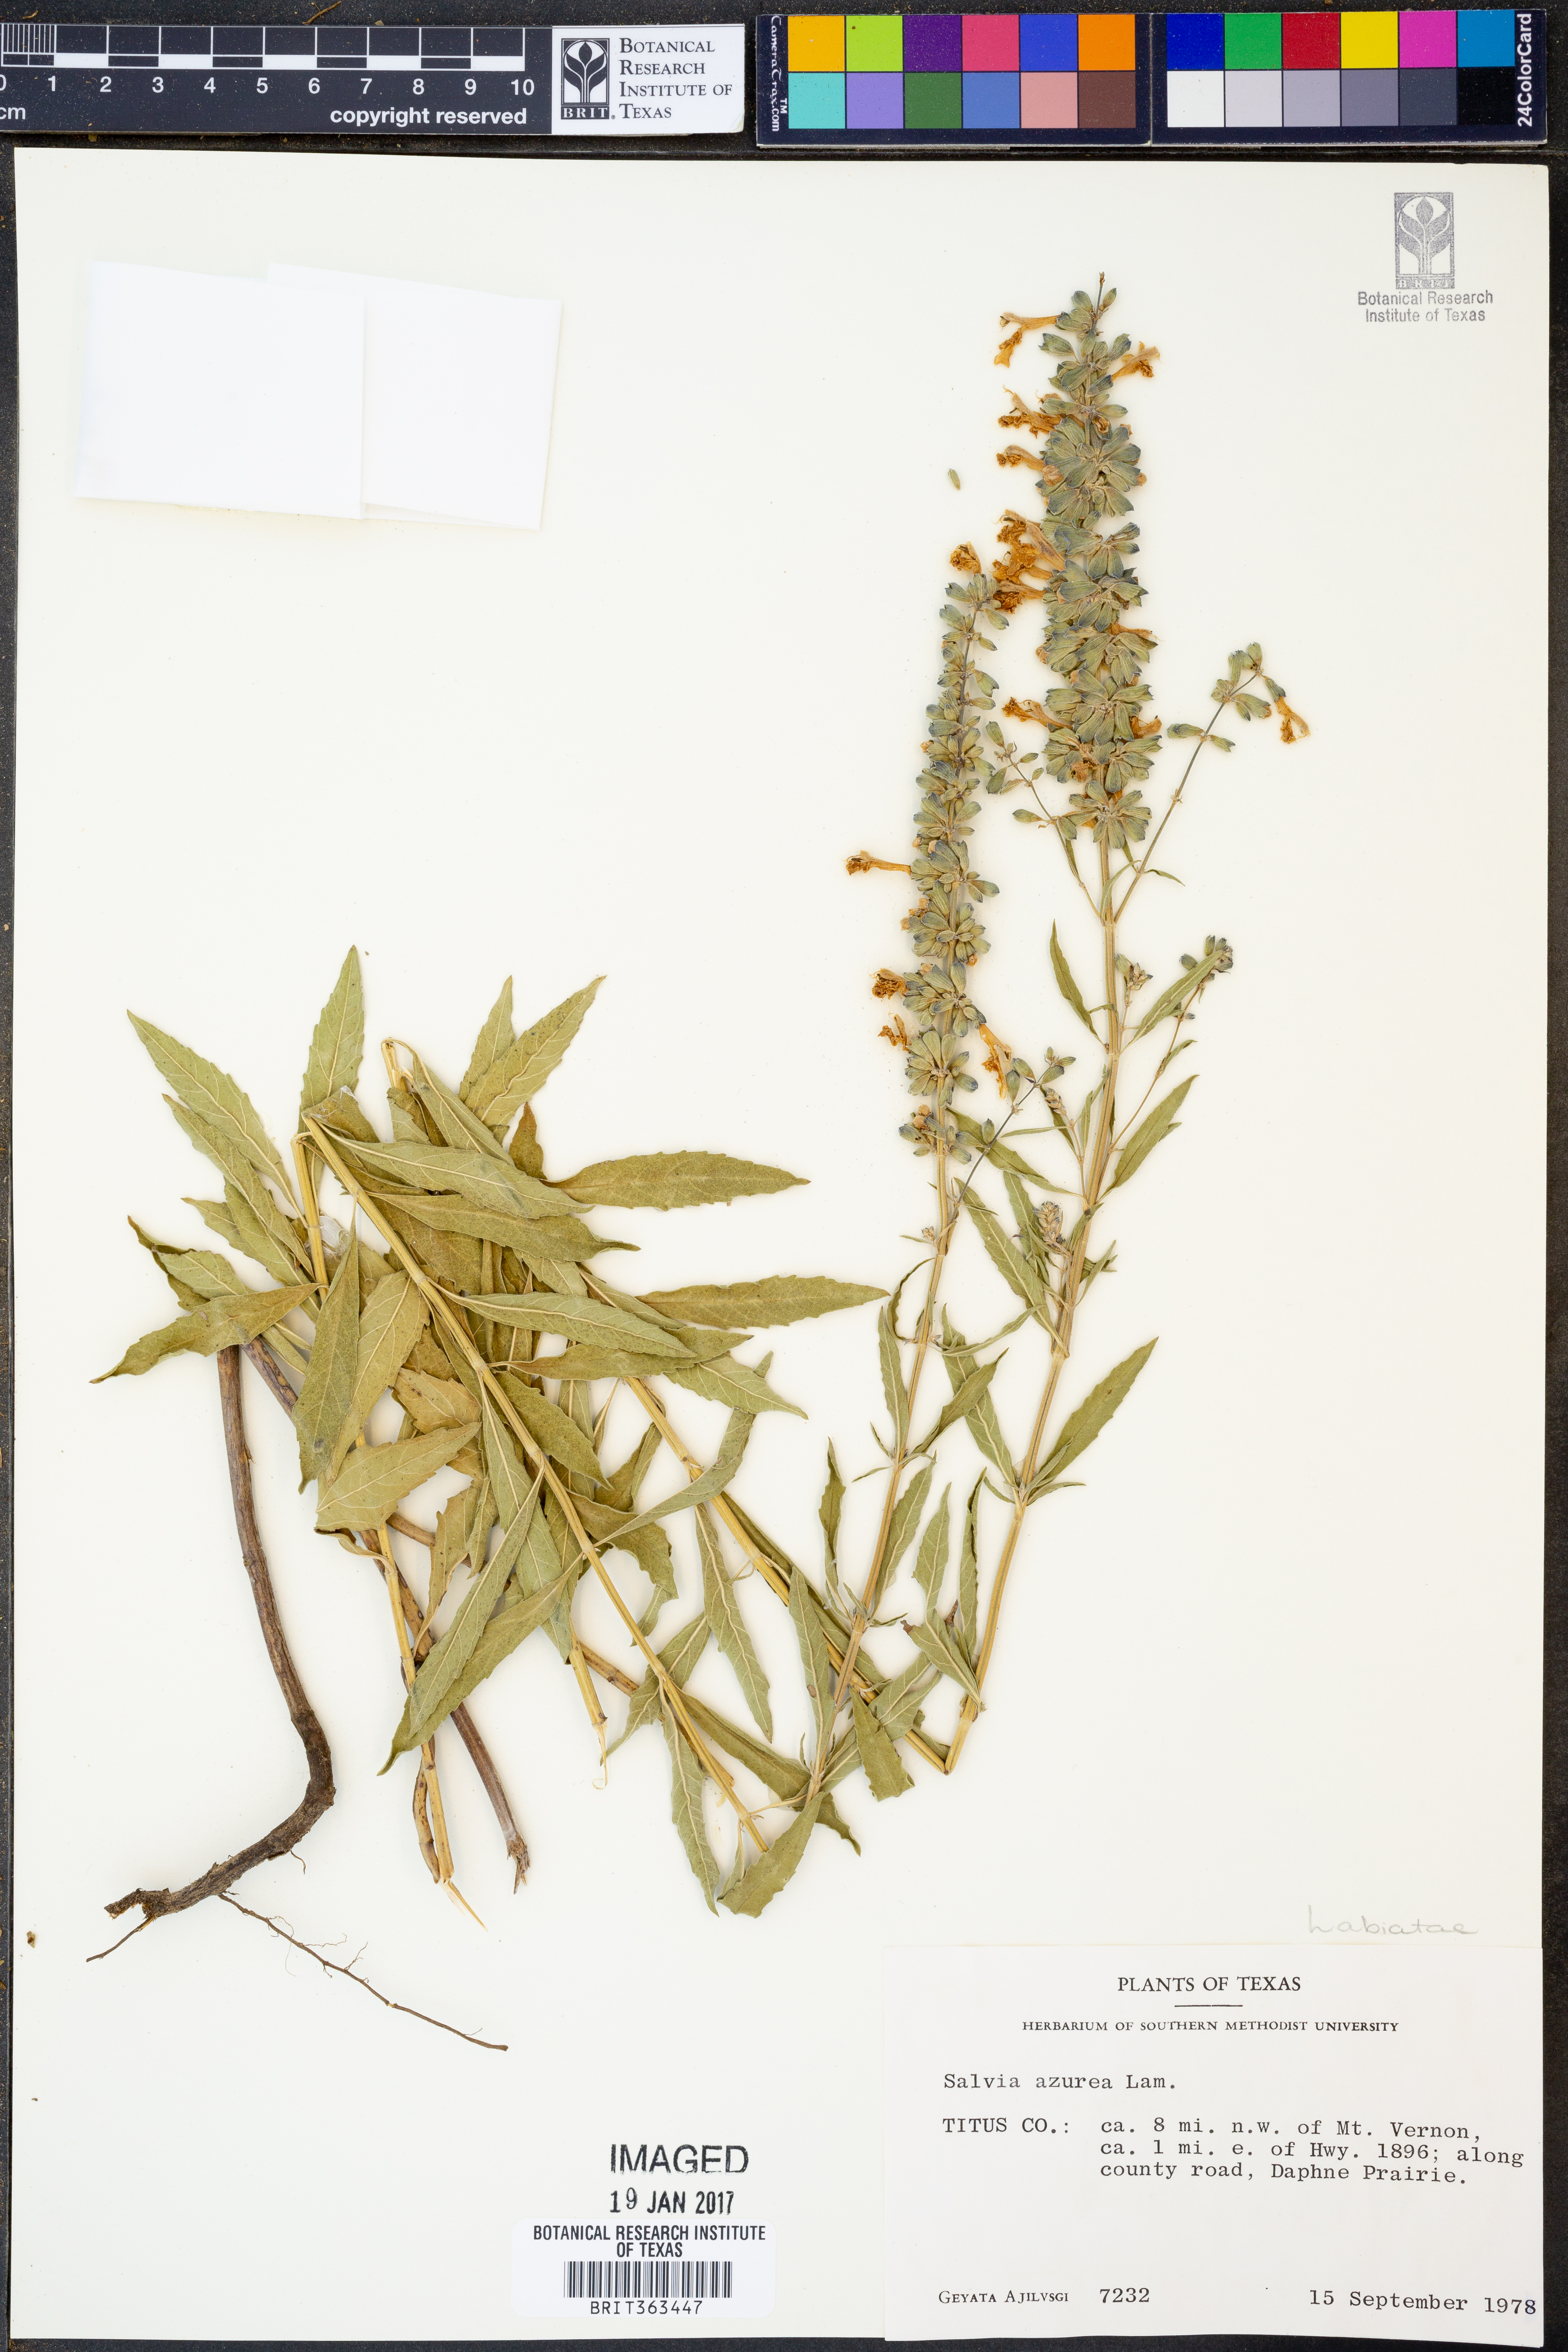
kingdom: Plantae
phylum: Tracheophyta
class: Magnoliopsida
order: Lamiales
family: Lamiaceae
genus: Salvia
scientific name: Salvia azurea
